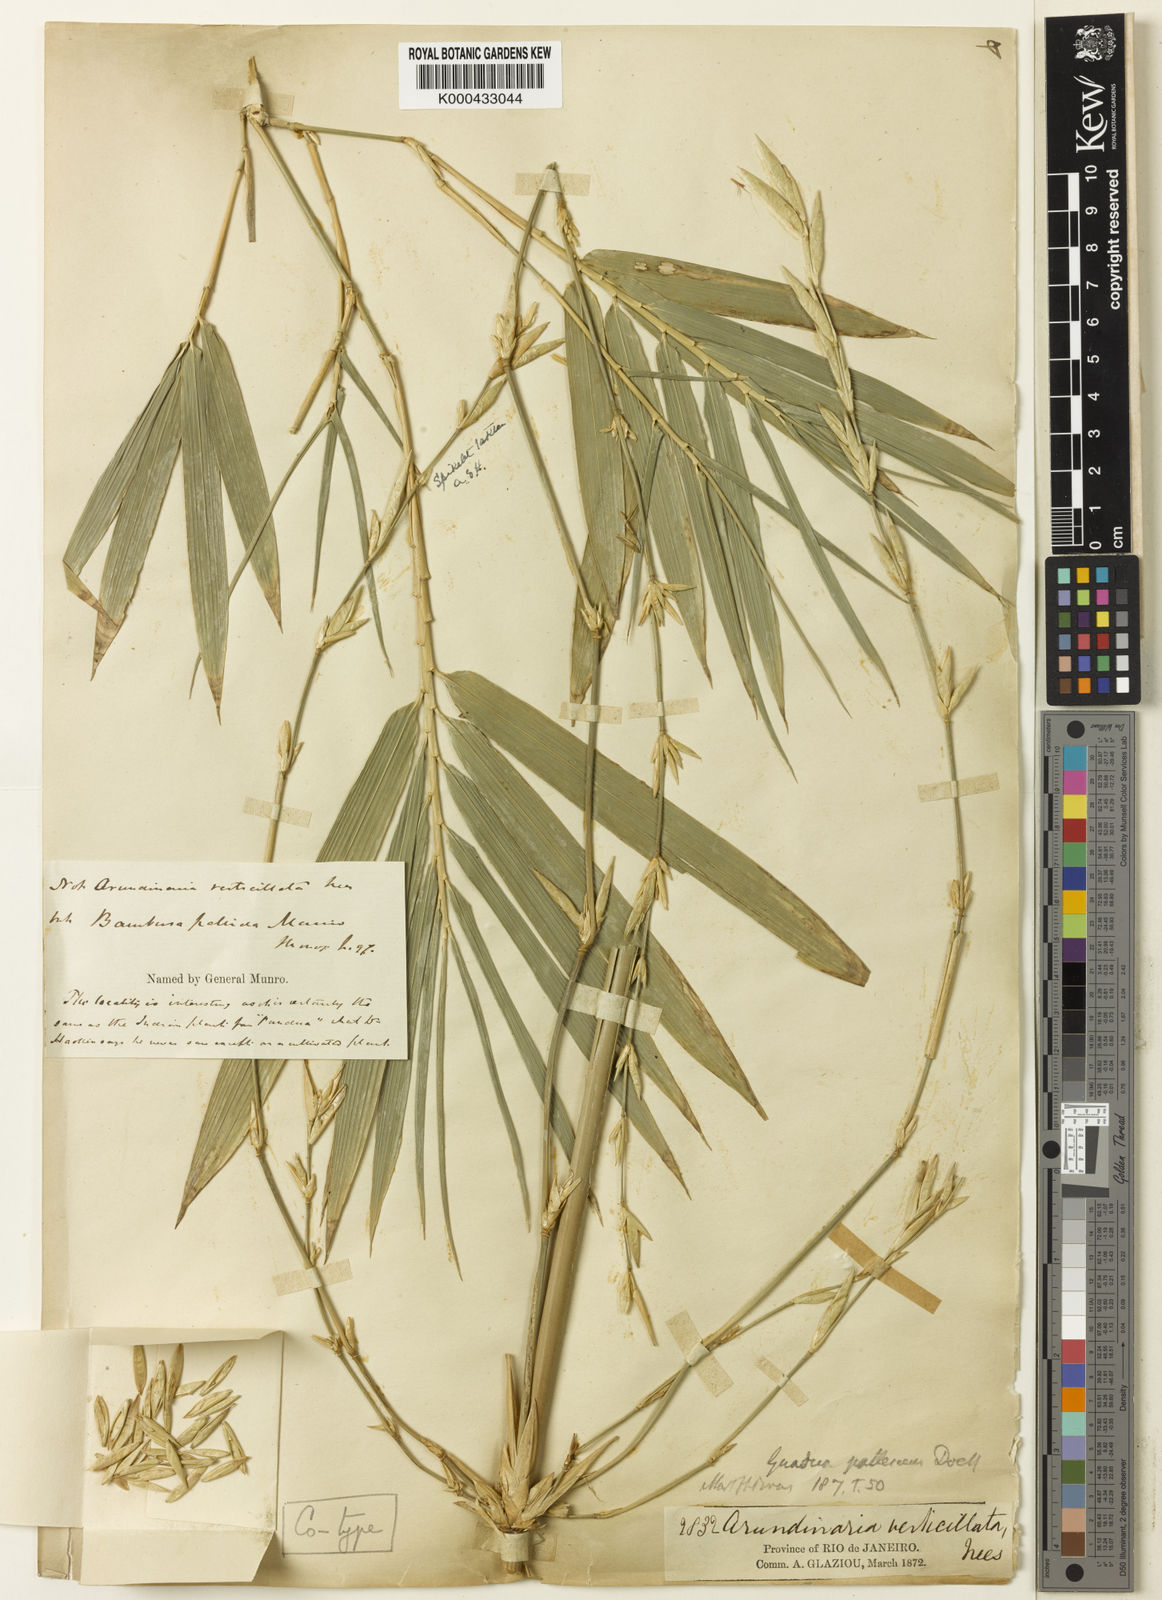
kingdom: Plantae
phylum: Tracheophyta
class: Liliopsida
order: Poales
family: Poaceae
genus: Bambusa
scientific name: Bambusa tuldoides
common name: Verdant bamboo
